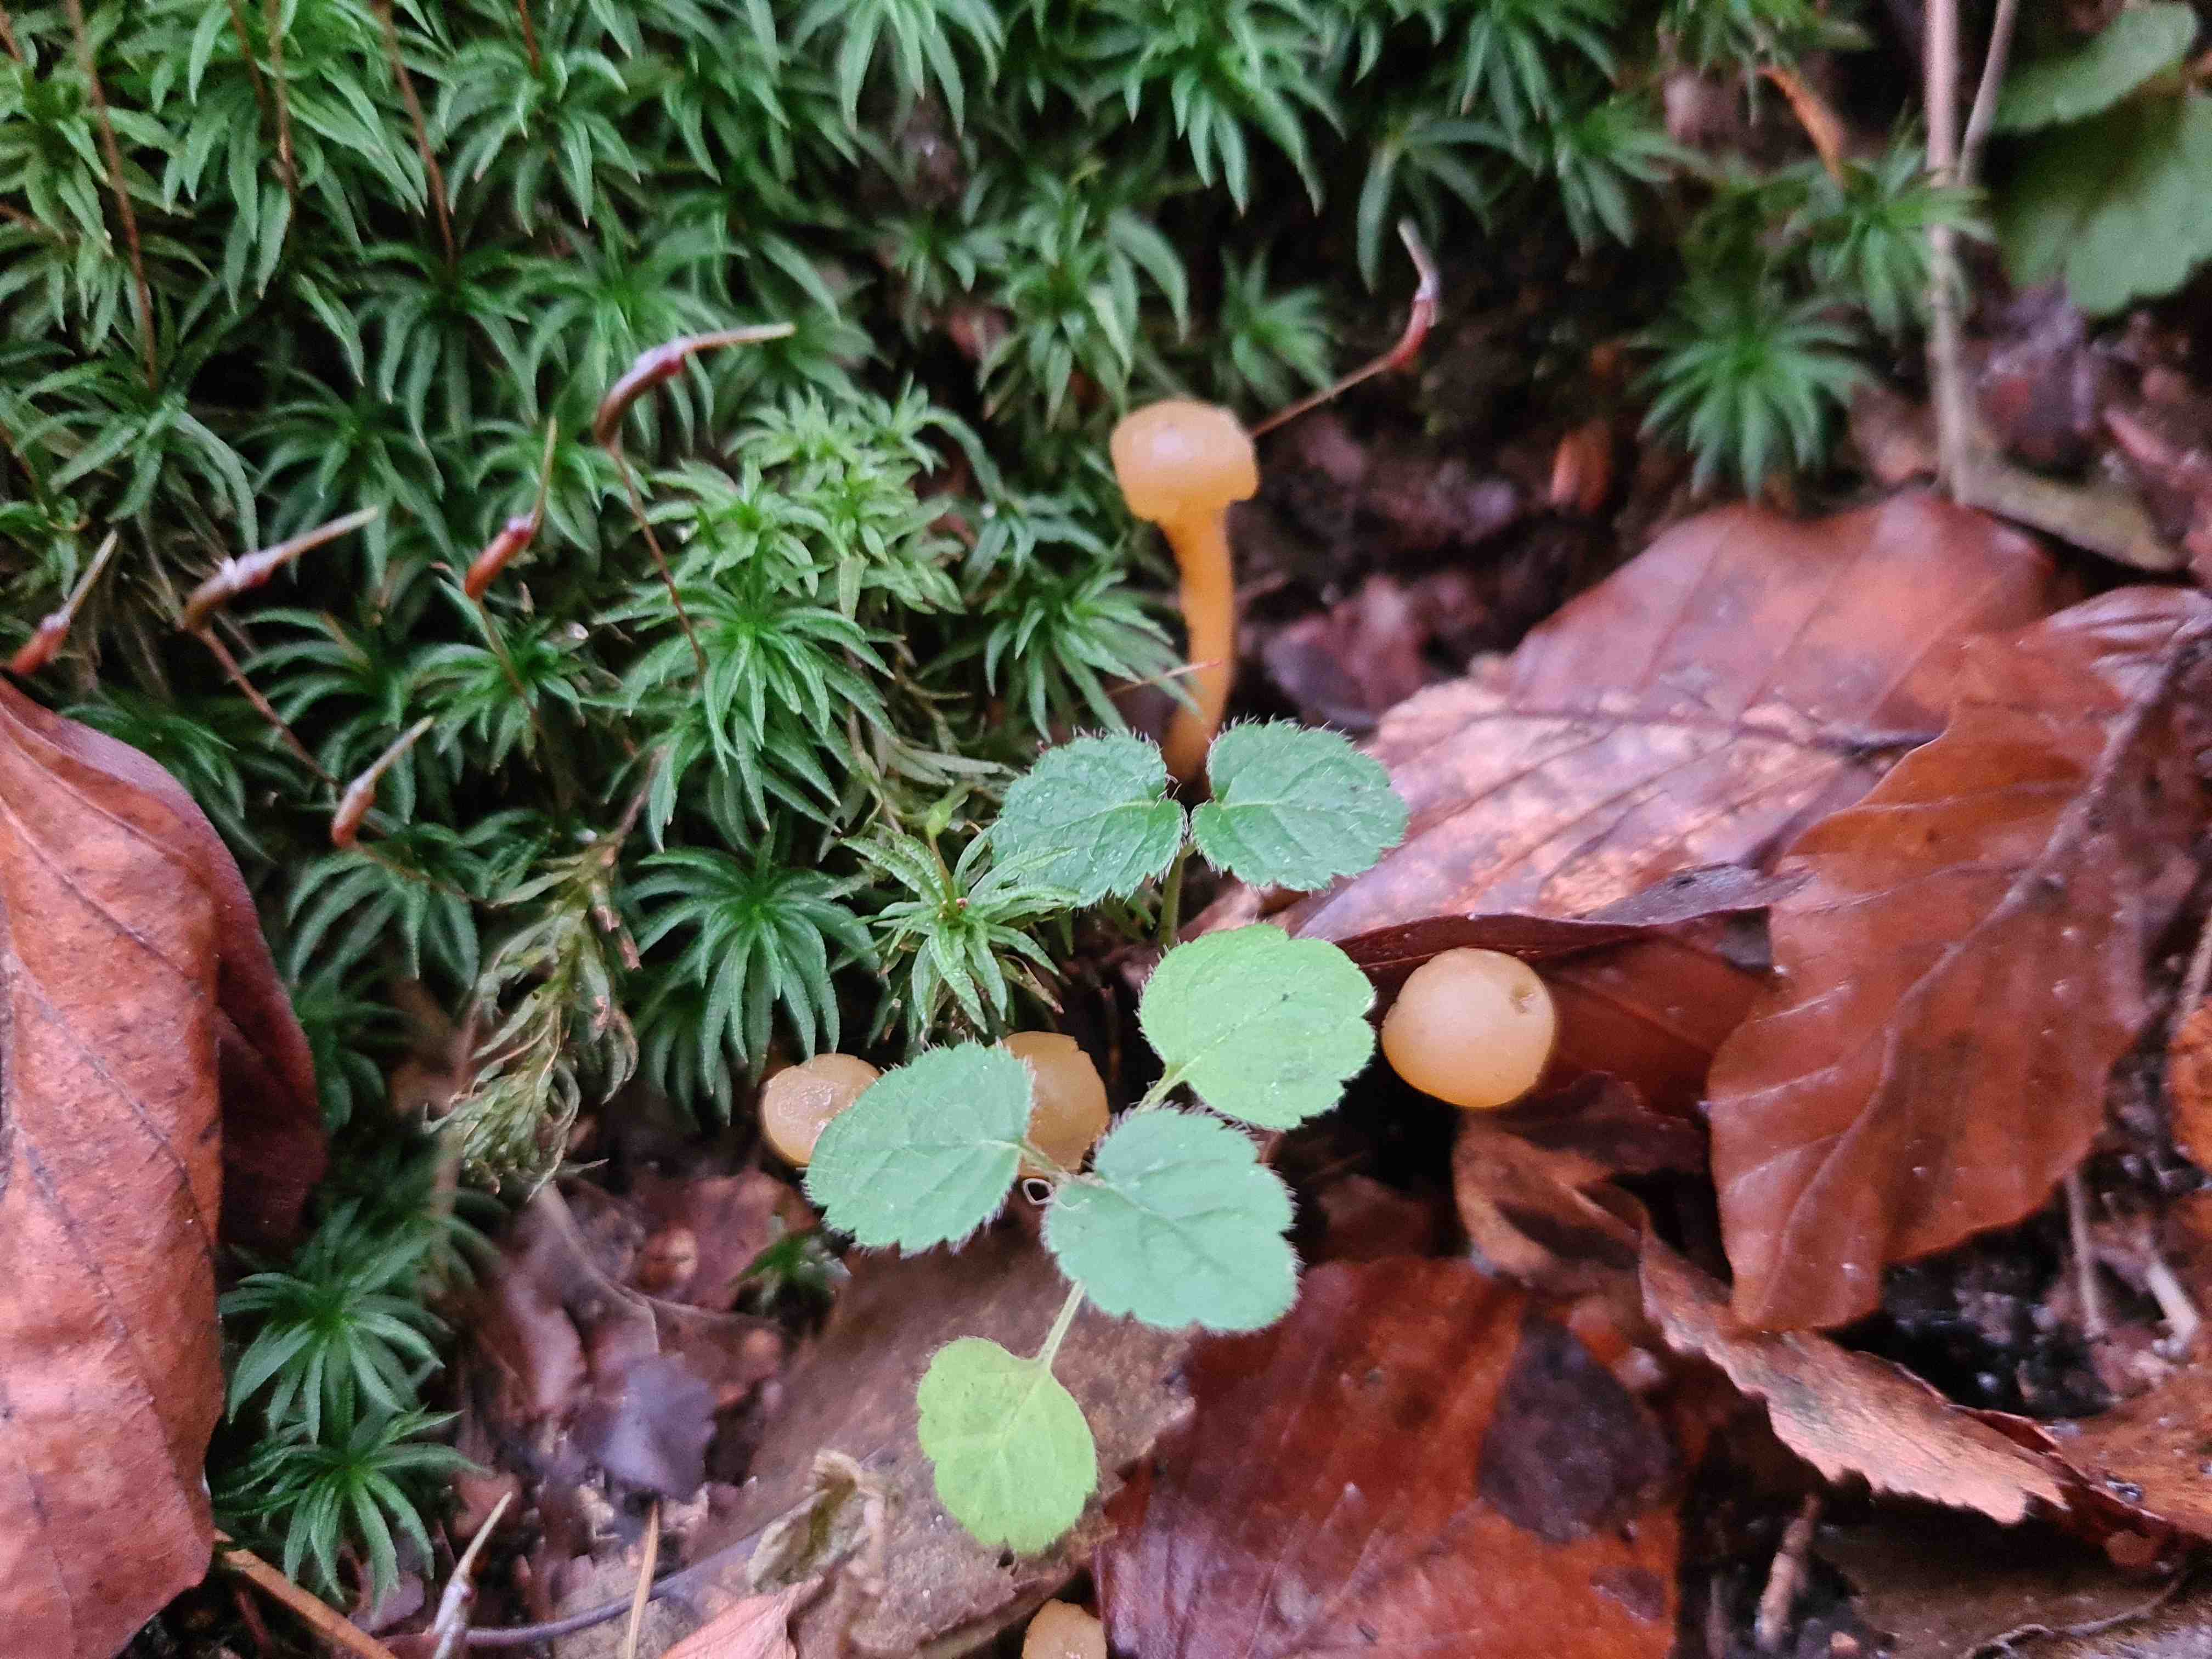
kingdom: Fungi
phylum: Ascomycota
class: Leotiomycetes
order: Leotiales
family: Leotiaceae
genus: Leotia
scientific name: Leotia lubrica
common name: ravsvamp
